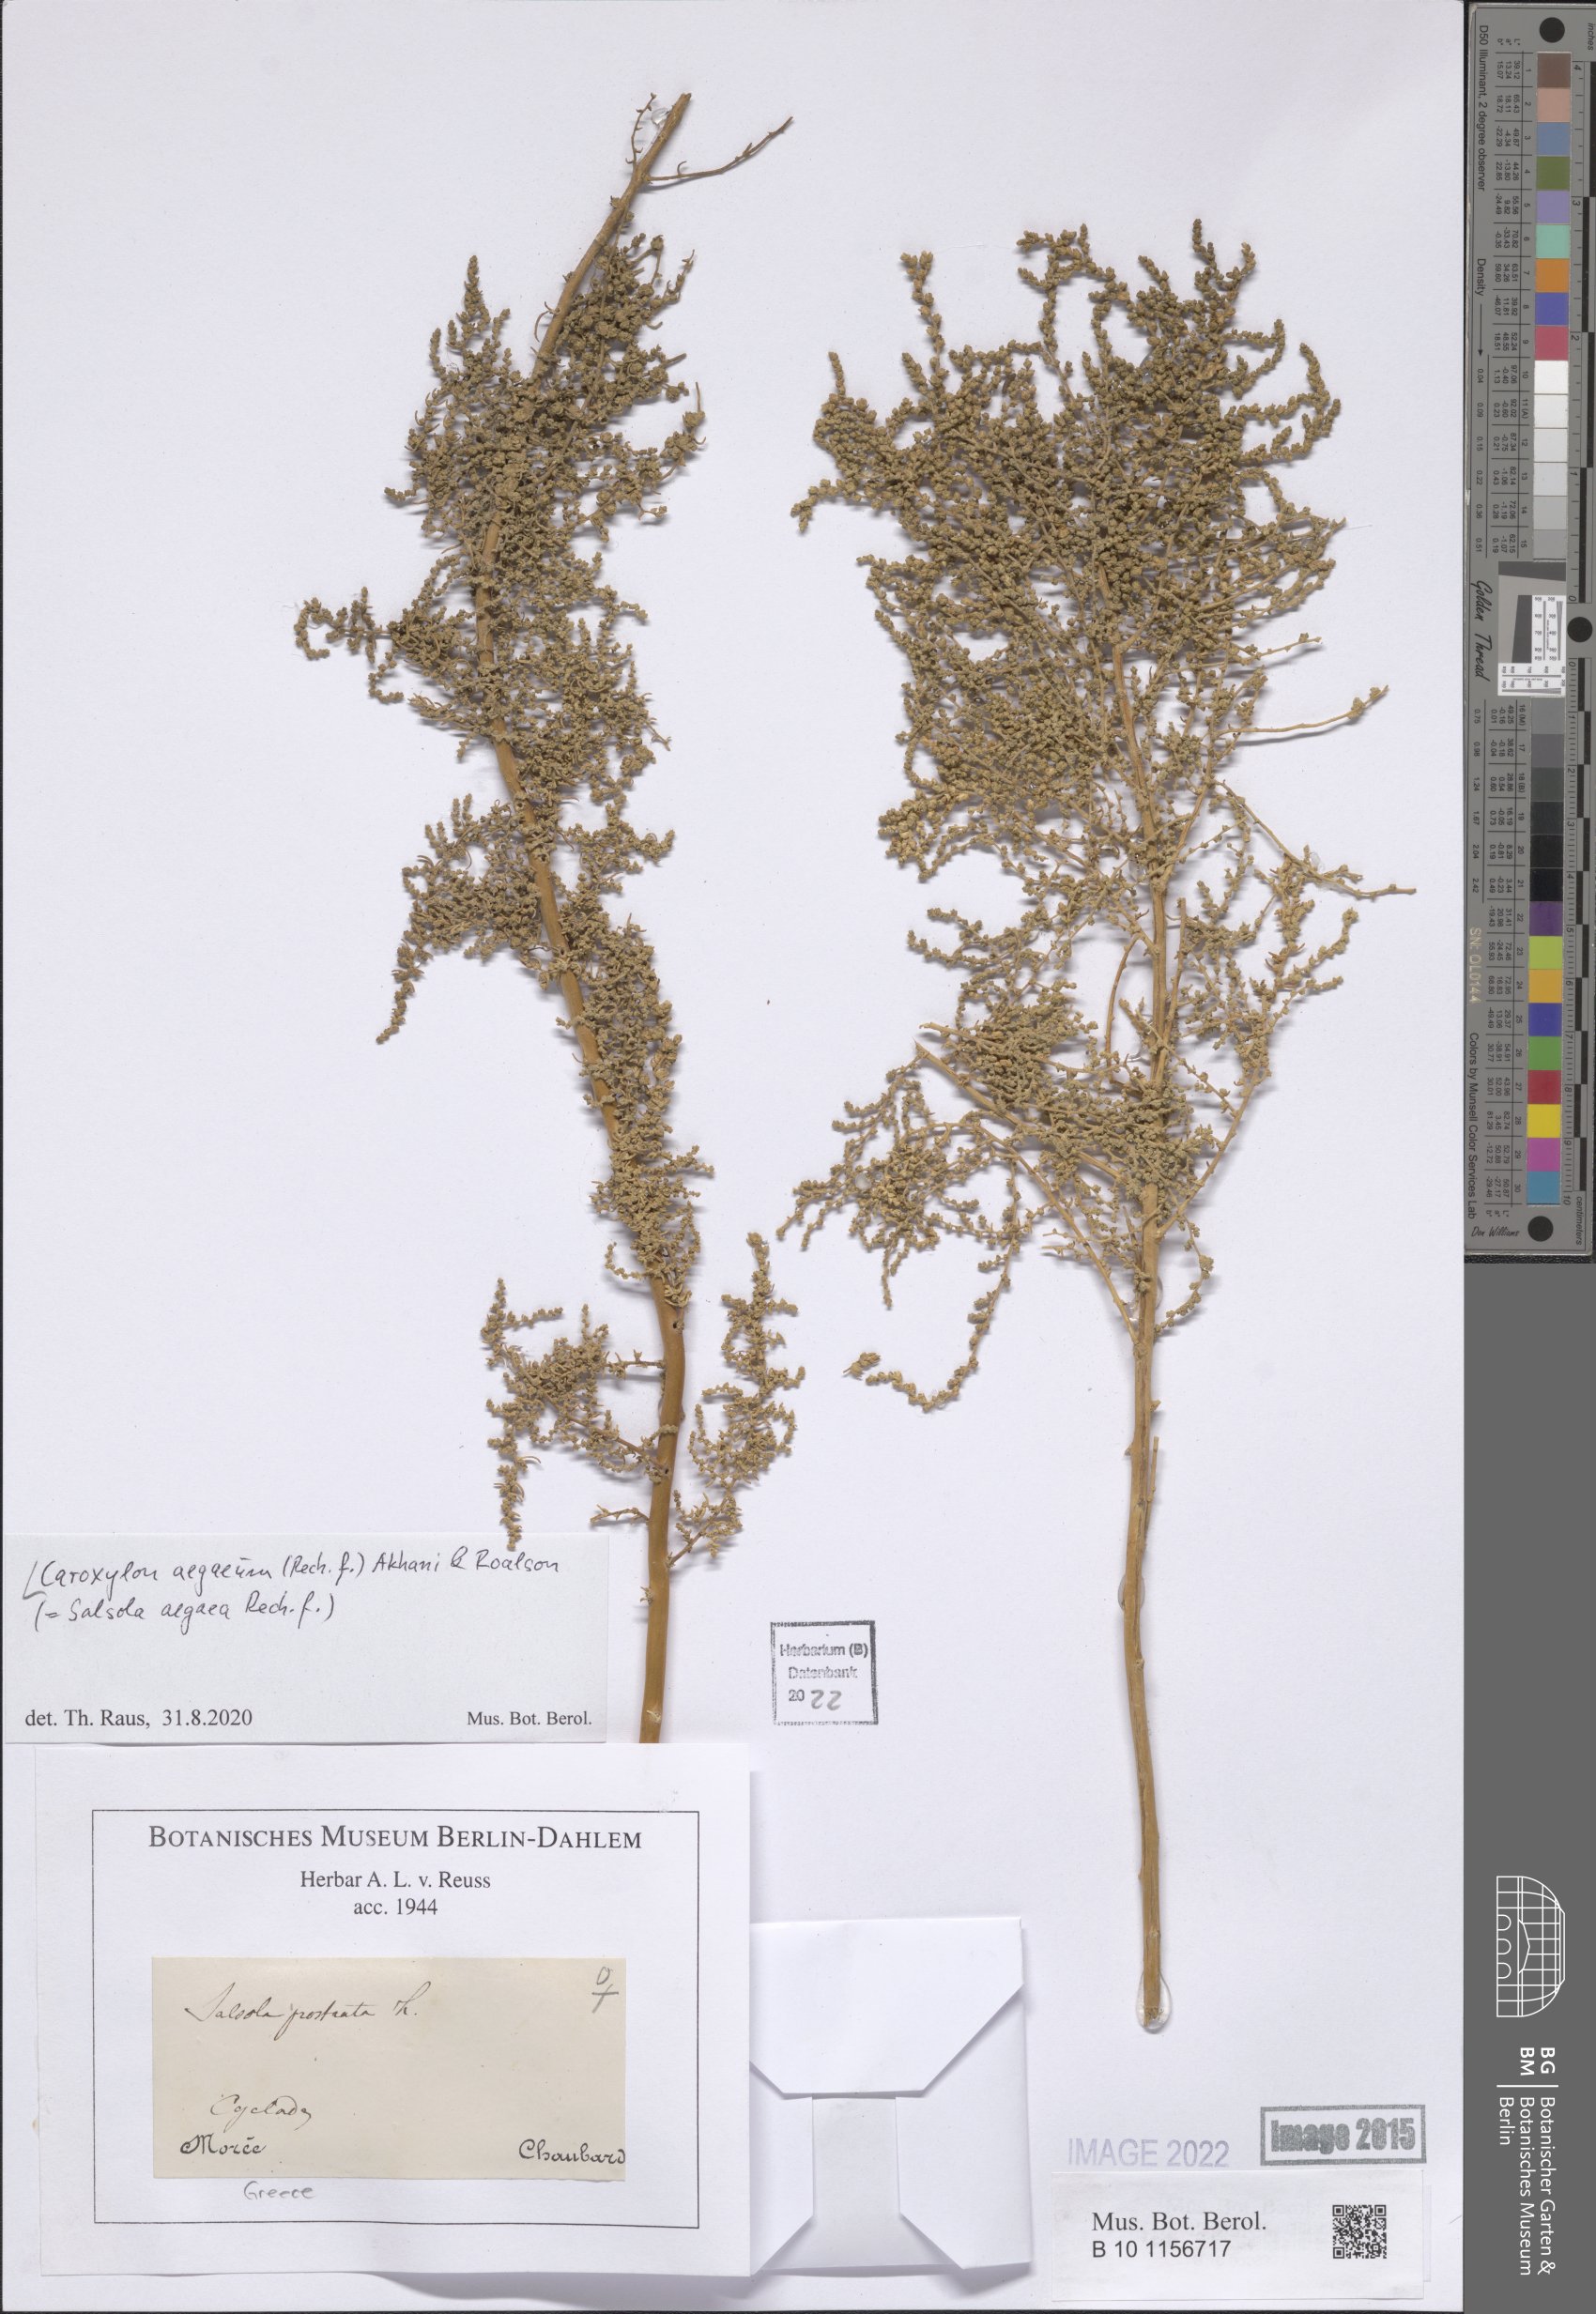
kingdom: Plantae
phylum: Tracheophyta
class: Magnoliopsida
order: Caryophyllales
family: Amaranthaceae
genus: Nitrosalsola
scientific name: Nitrosalsola aegaea
